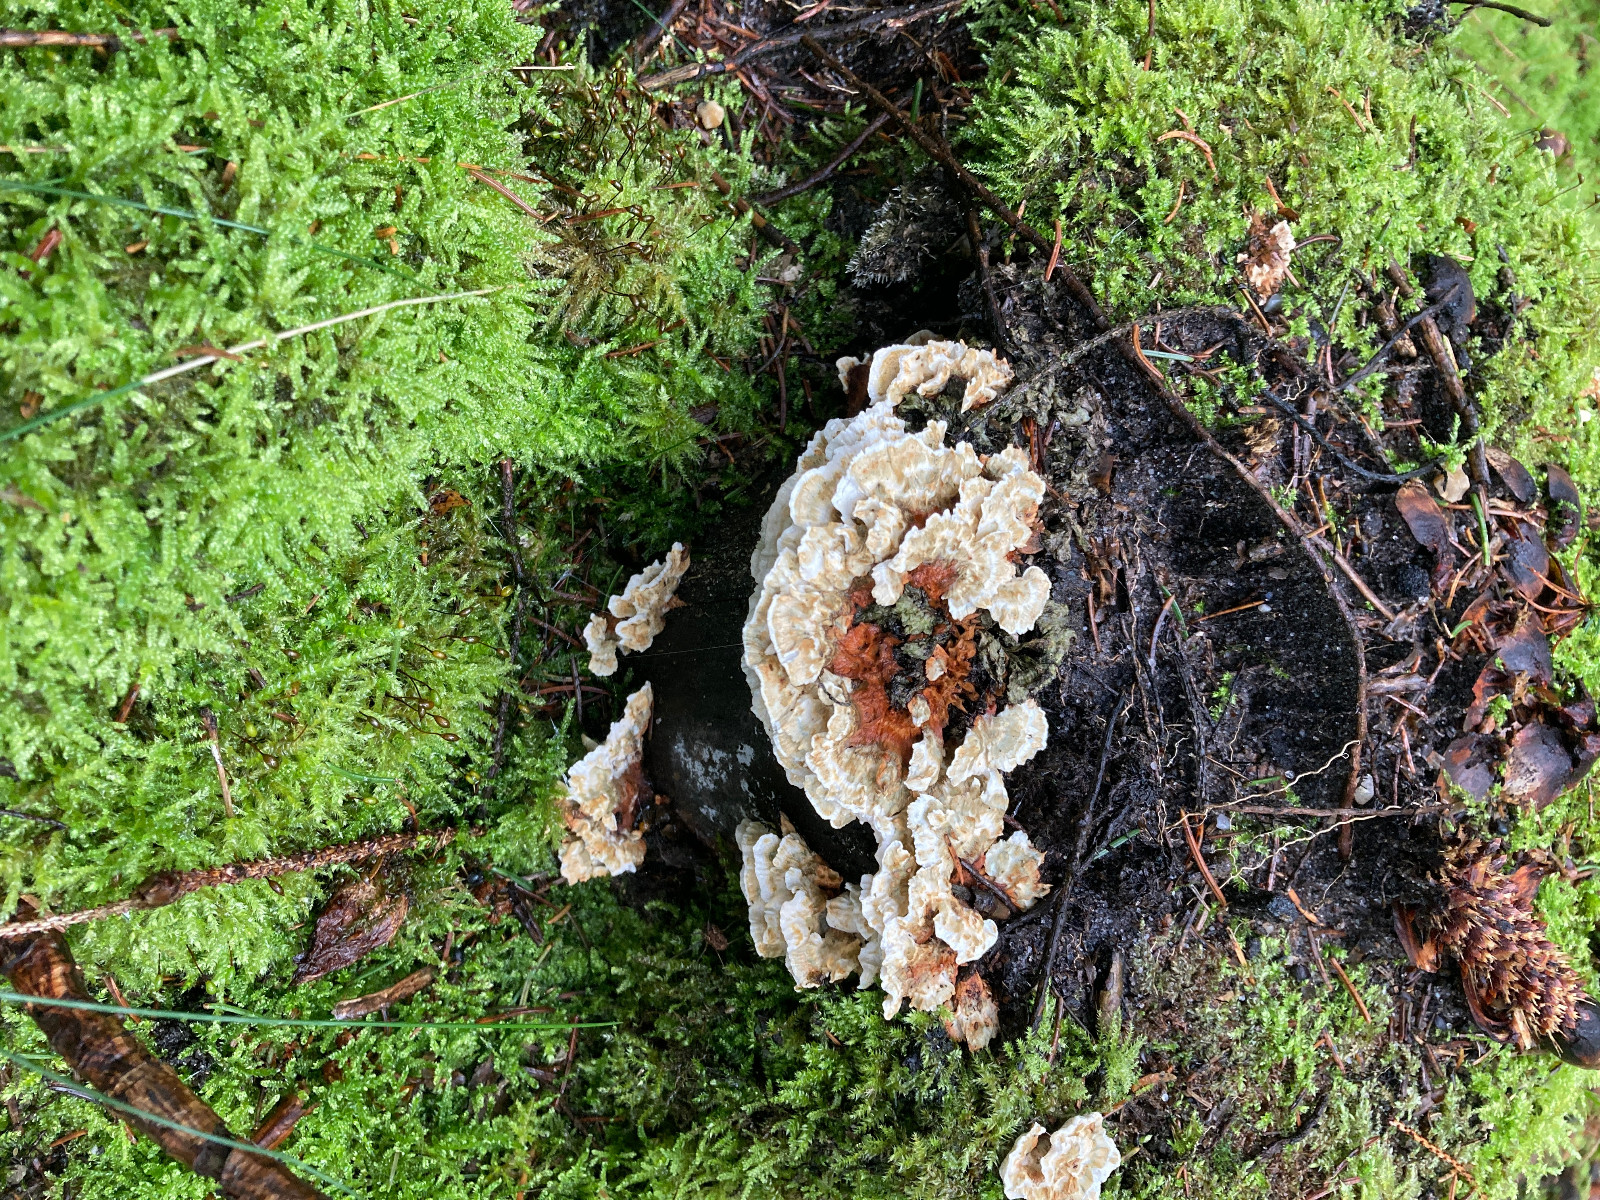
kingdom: Fungi
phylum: Basidiomycota
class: Agaricomycetes
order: Polyporales
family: Dacryobolaceae
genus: Oligoporus
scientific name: Oligoporus wakefieldiae
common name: række-kødporesvamp
